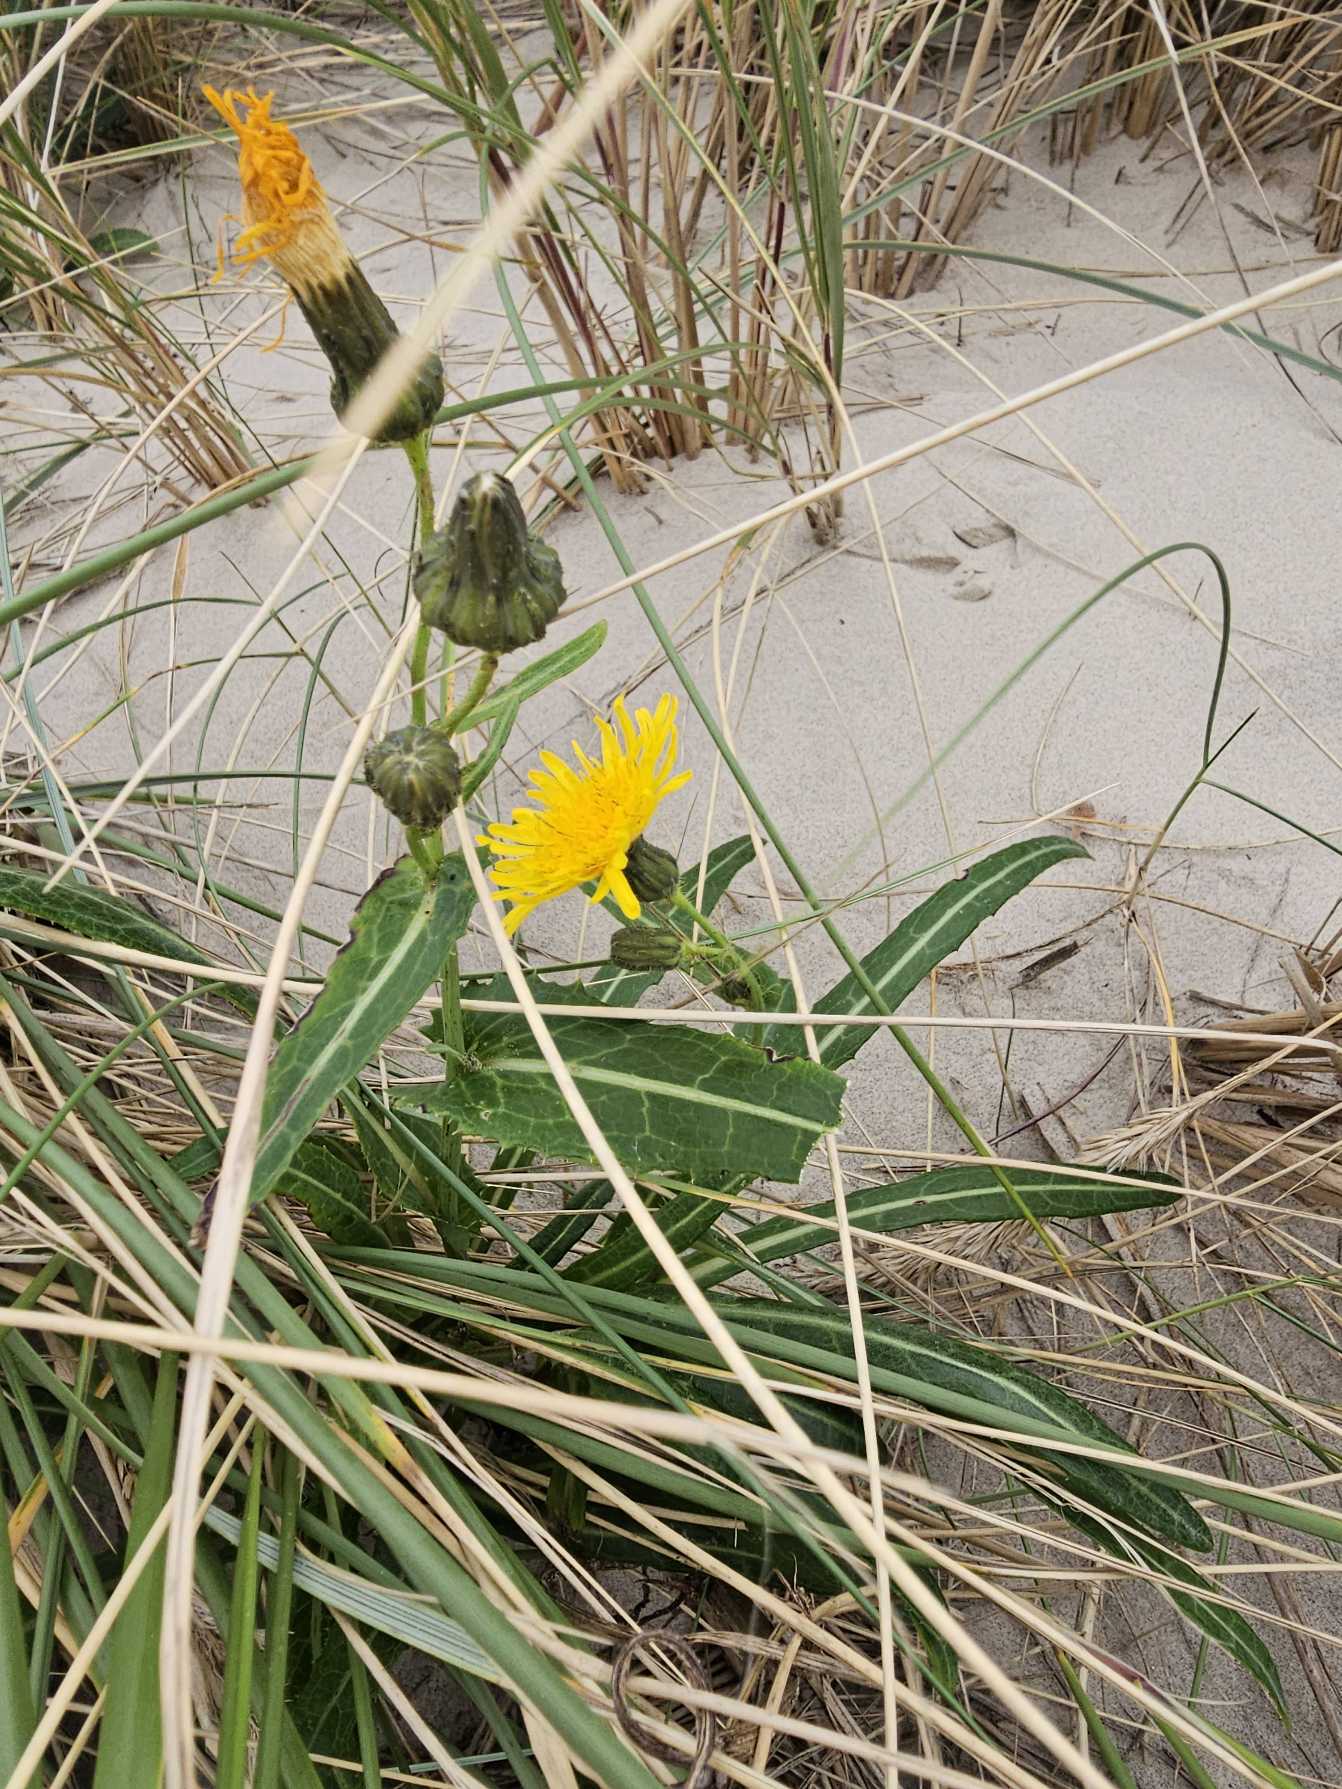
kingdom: Plantae
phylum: Tracheophyta
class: Magnoliopsida
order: Asterales
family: Asteraceae
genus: Sonchus
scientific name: Sonchus arvensis
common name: Ager-svinemælk
